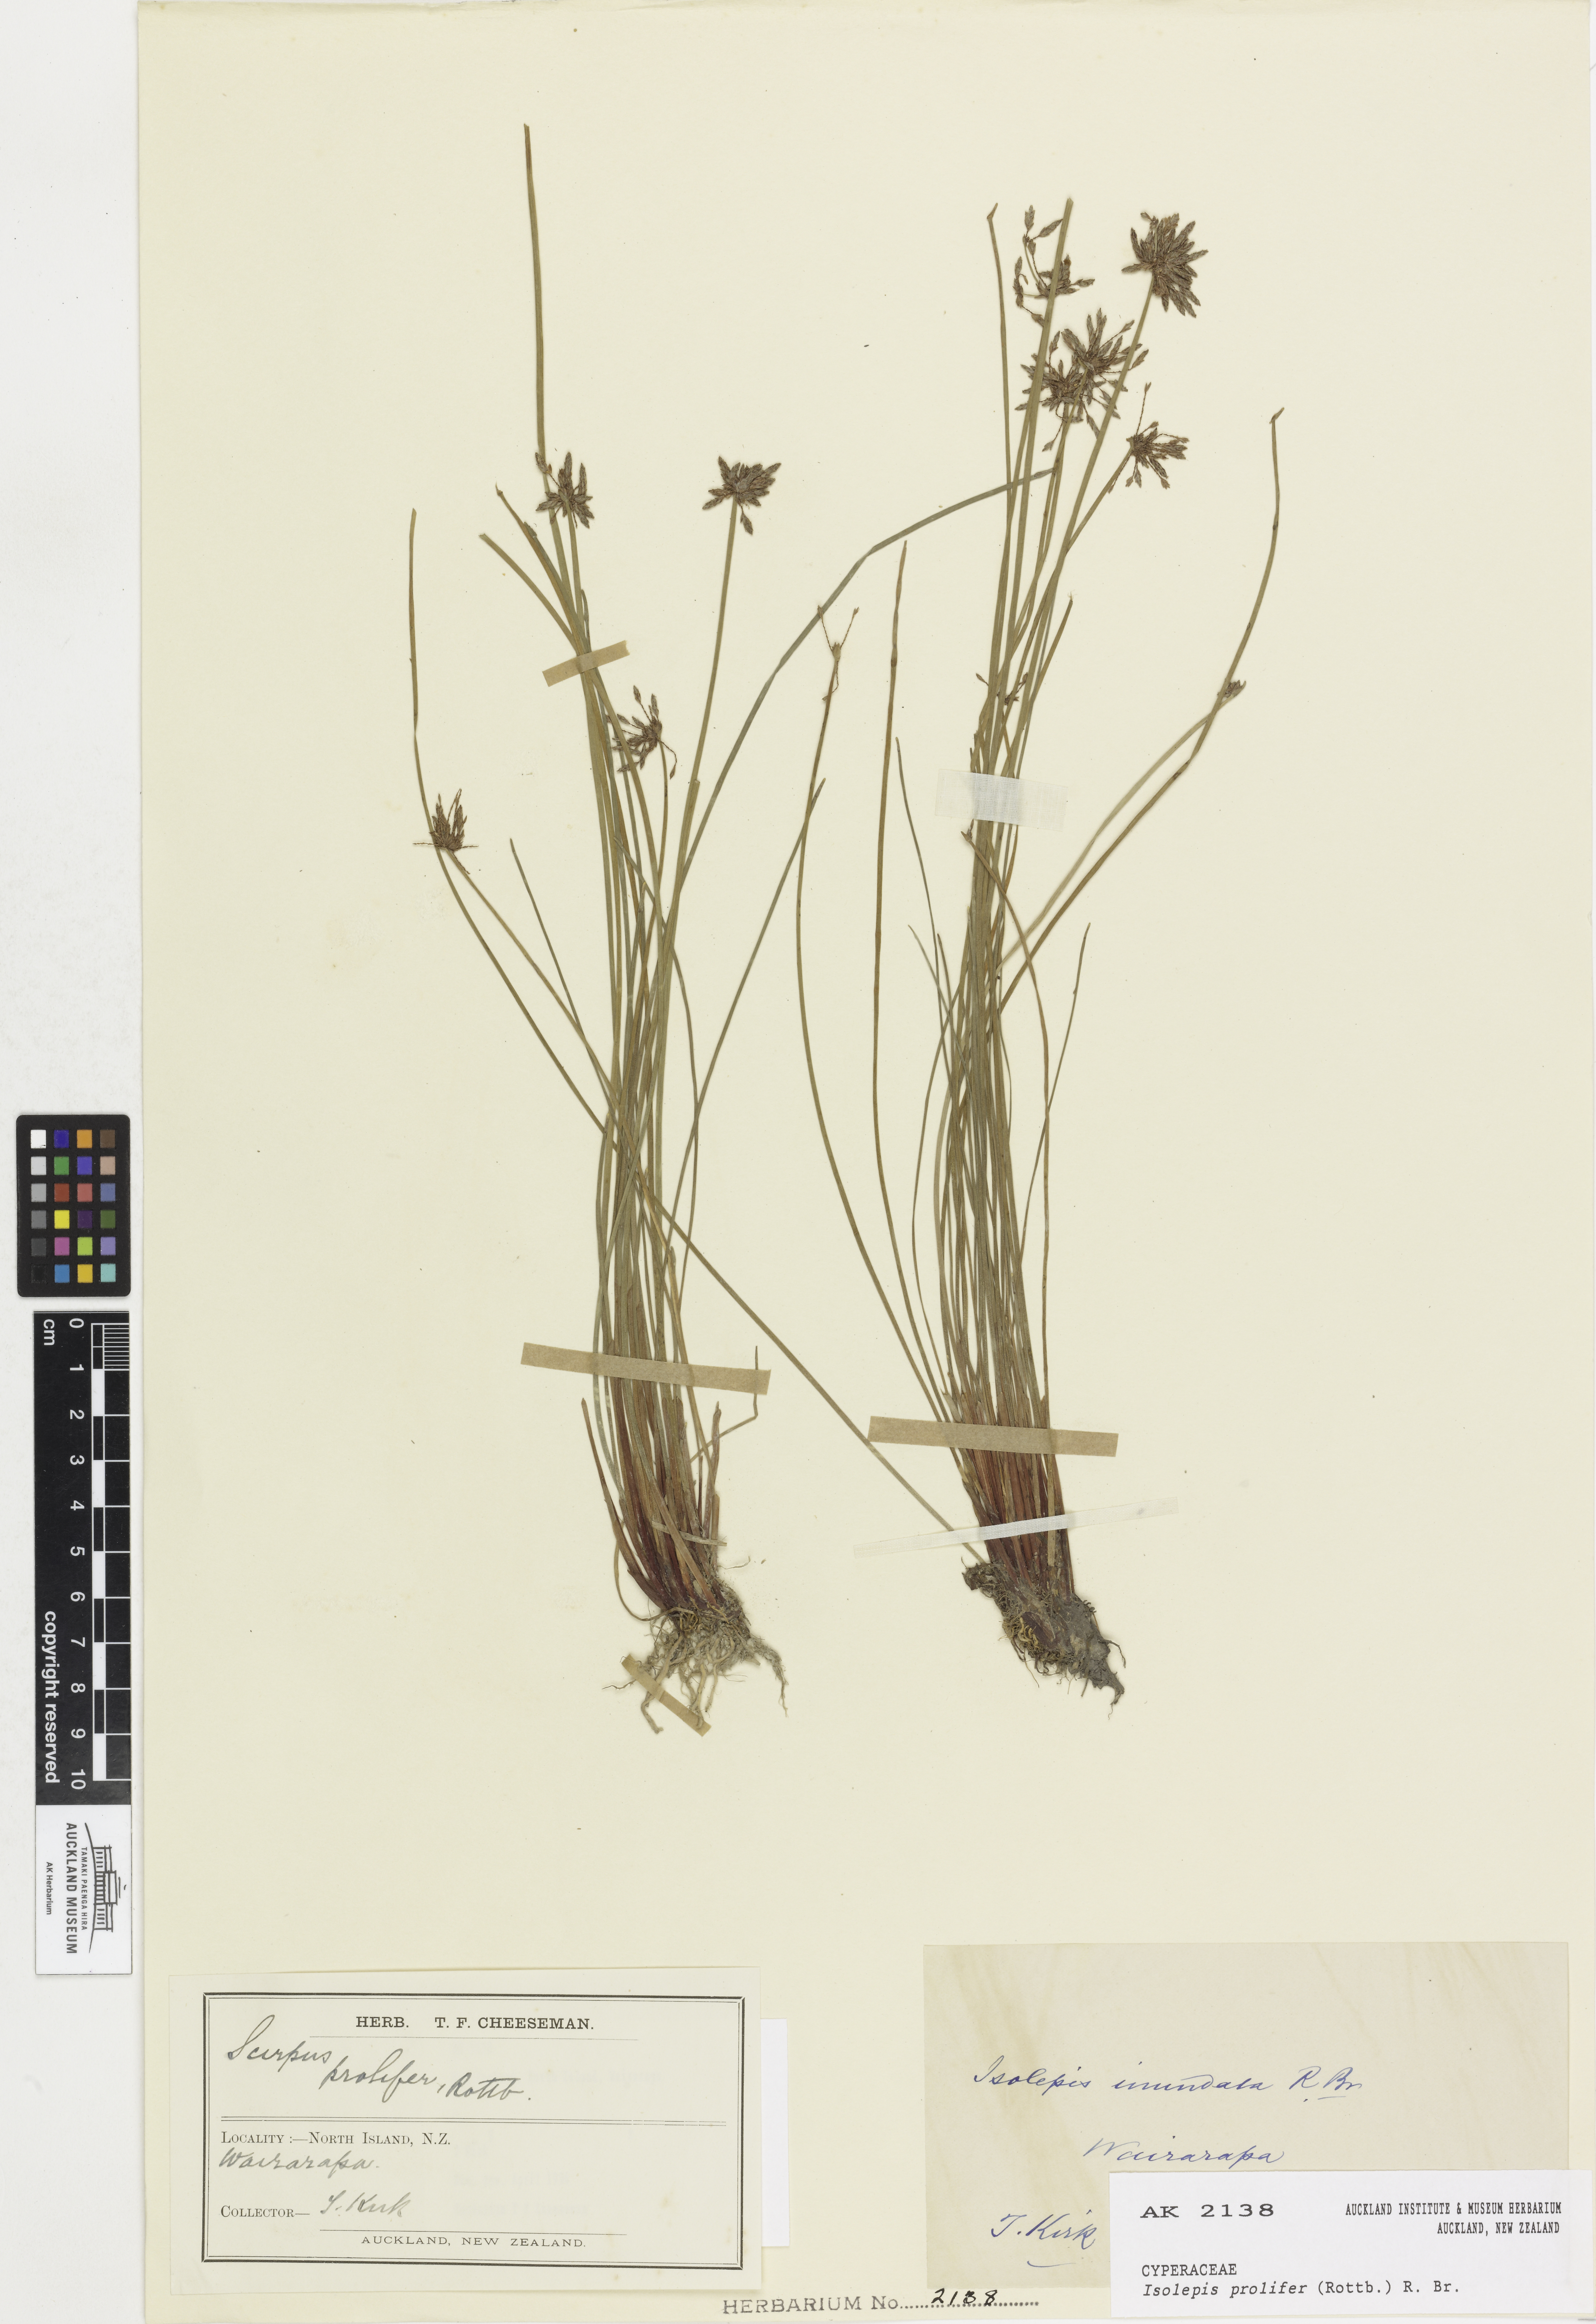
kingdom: Plantae
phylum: Tracheophyta
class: Liliopsida
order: Poales
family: Cyperaceae
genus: Isolepis
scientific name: Isolepis prolifera
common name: Proliferating bulrush
